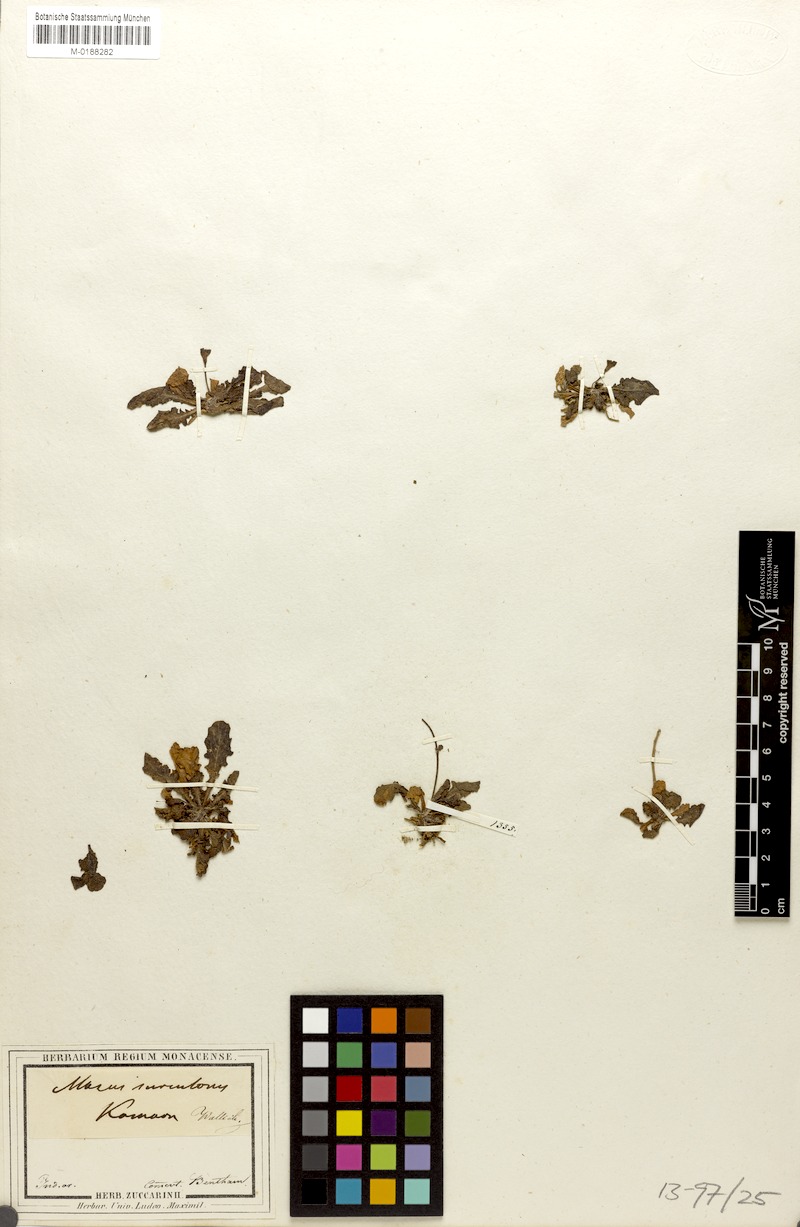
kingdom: Plantae
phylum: Tracheophyta
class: Magnoliopsida
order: Lamiales
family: Mazaceae
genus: Mazus
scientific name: Mazus surculosus
